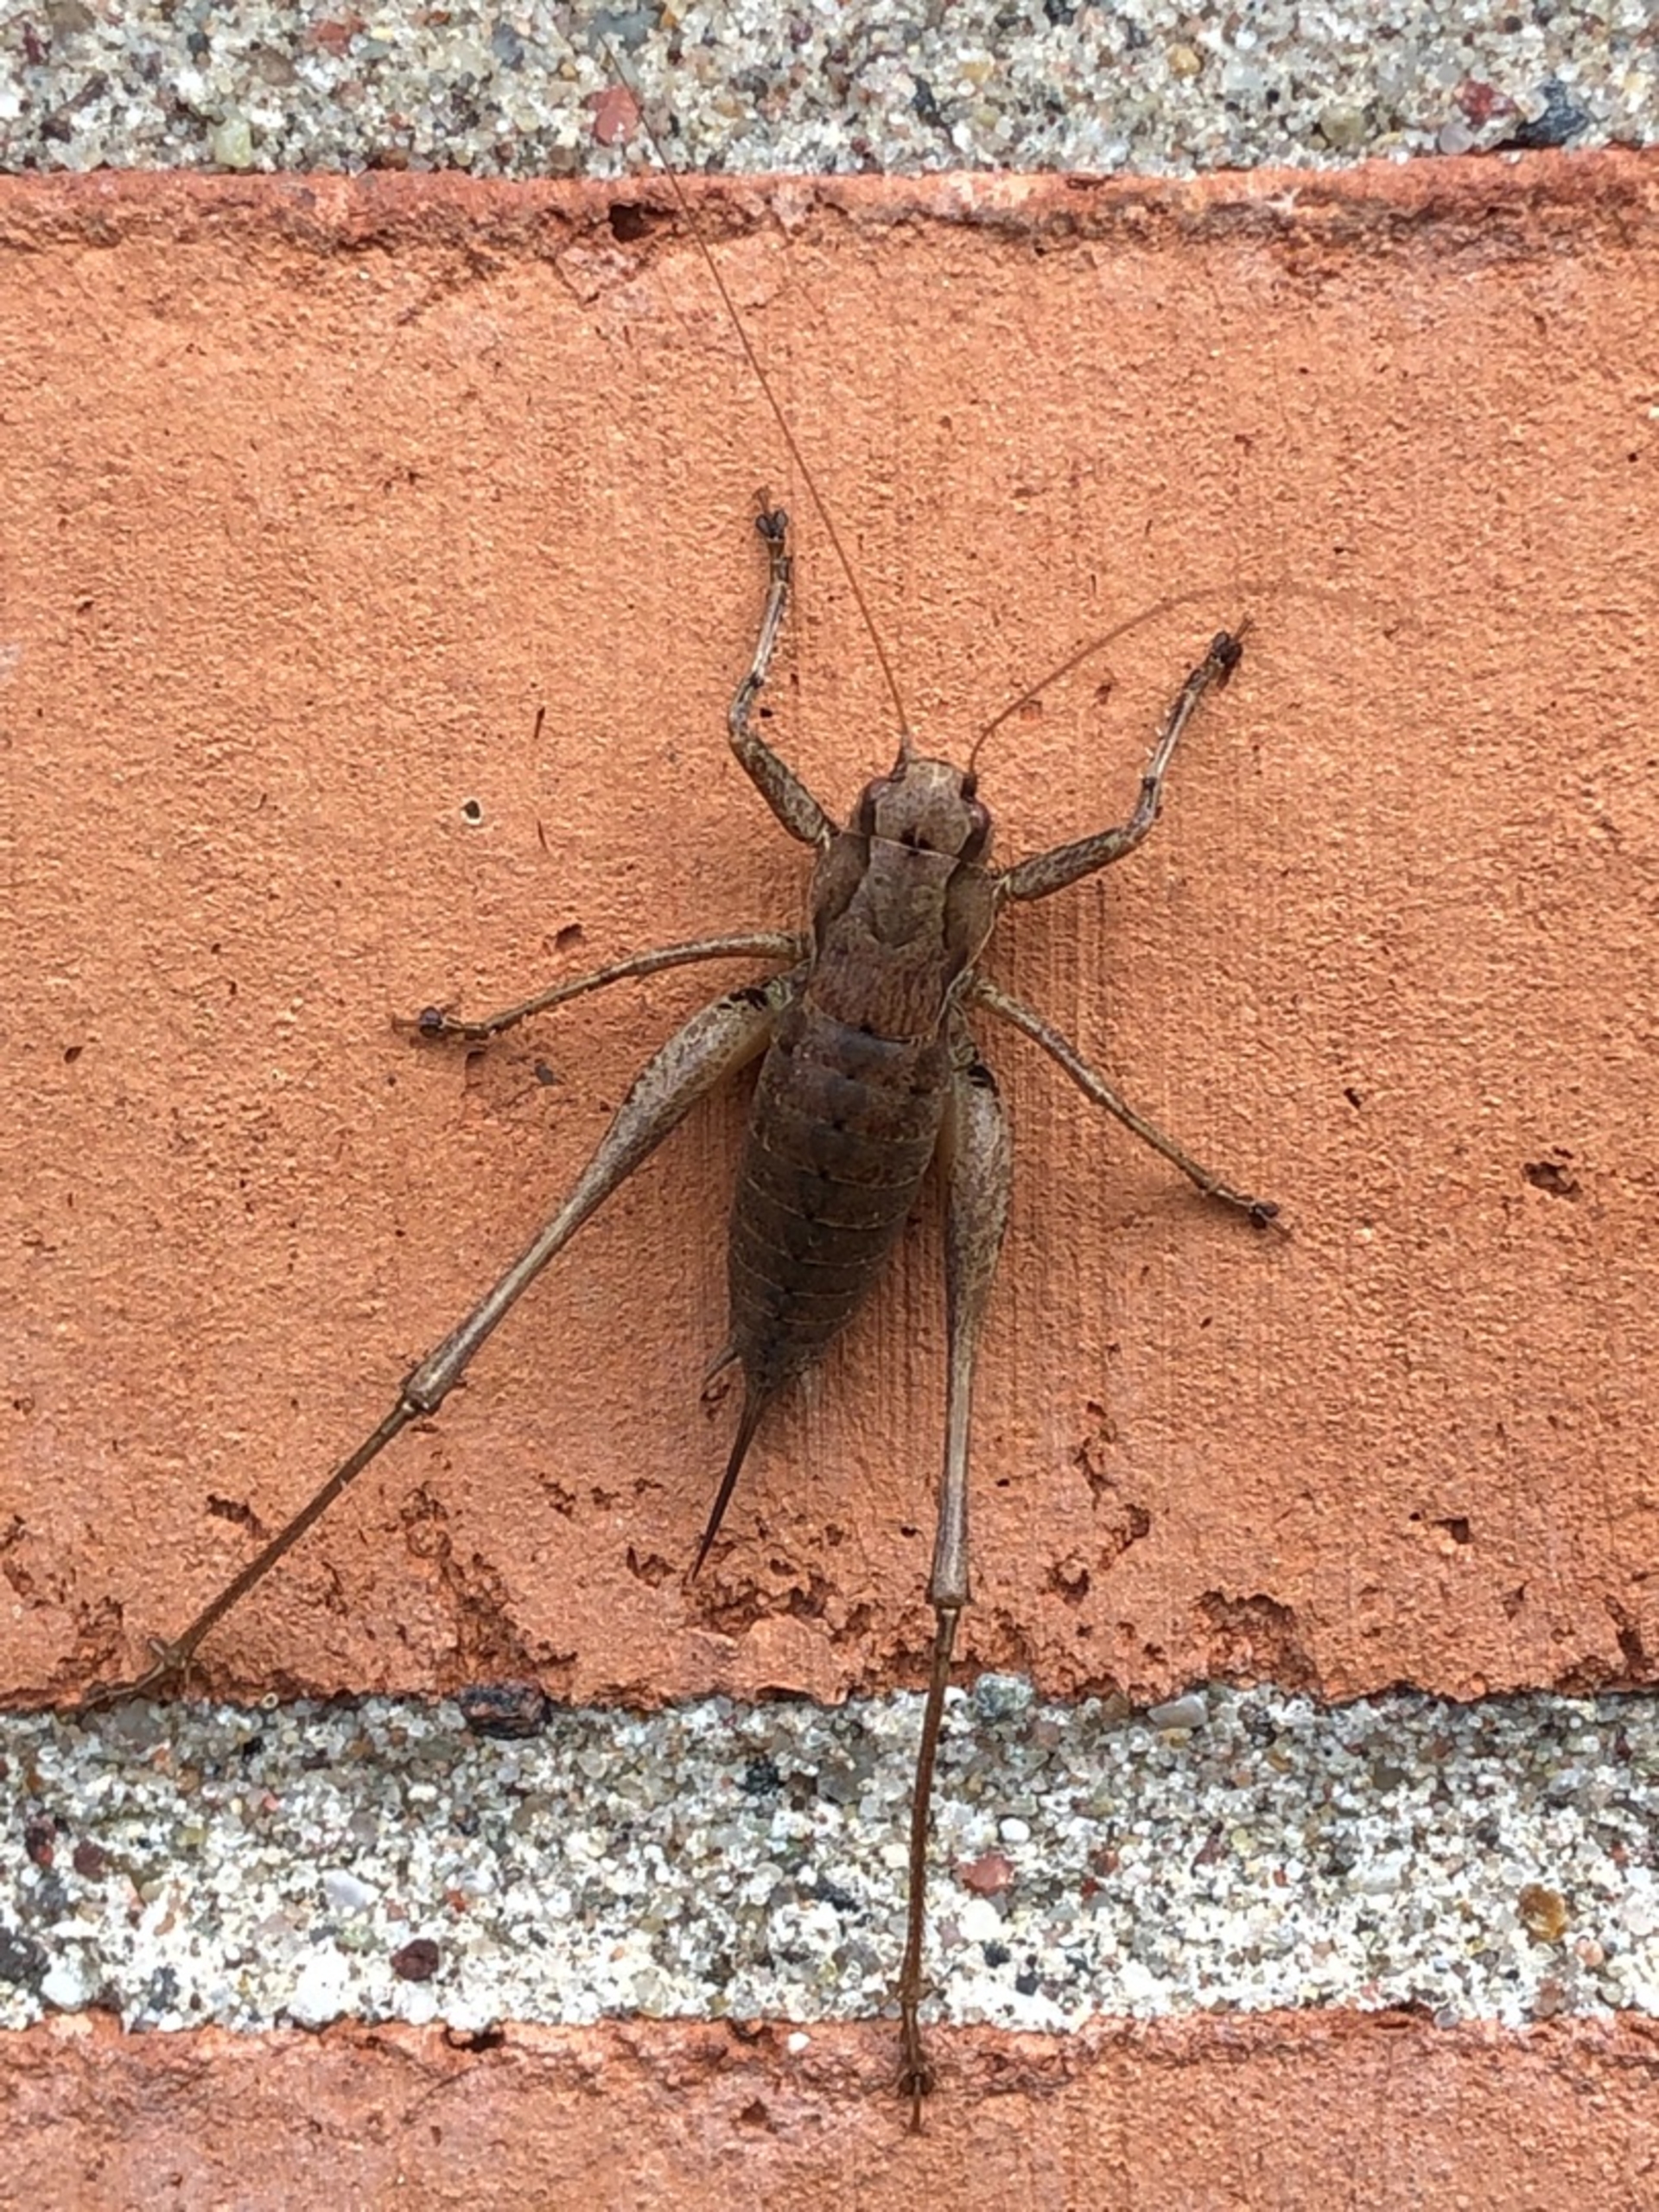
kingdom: Animalia
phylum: Arthropoda
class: Insecta
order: Orthoptera
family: Tettigoniidae
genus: Pholidoptera
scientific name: Pholidoptera griseoaptera
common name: Buskgræshoppe
